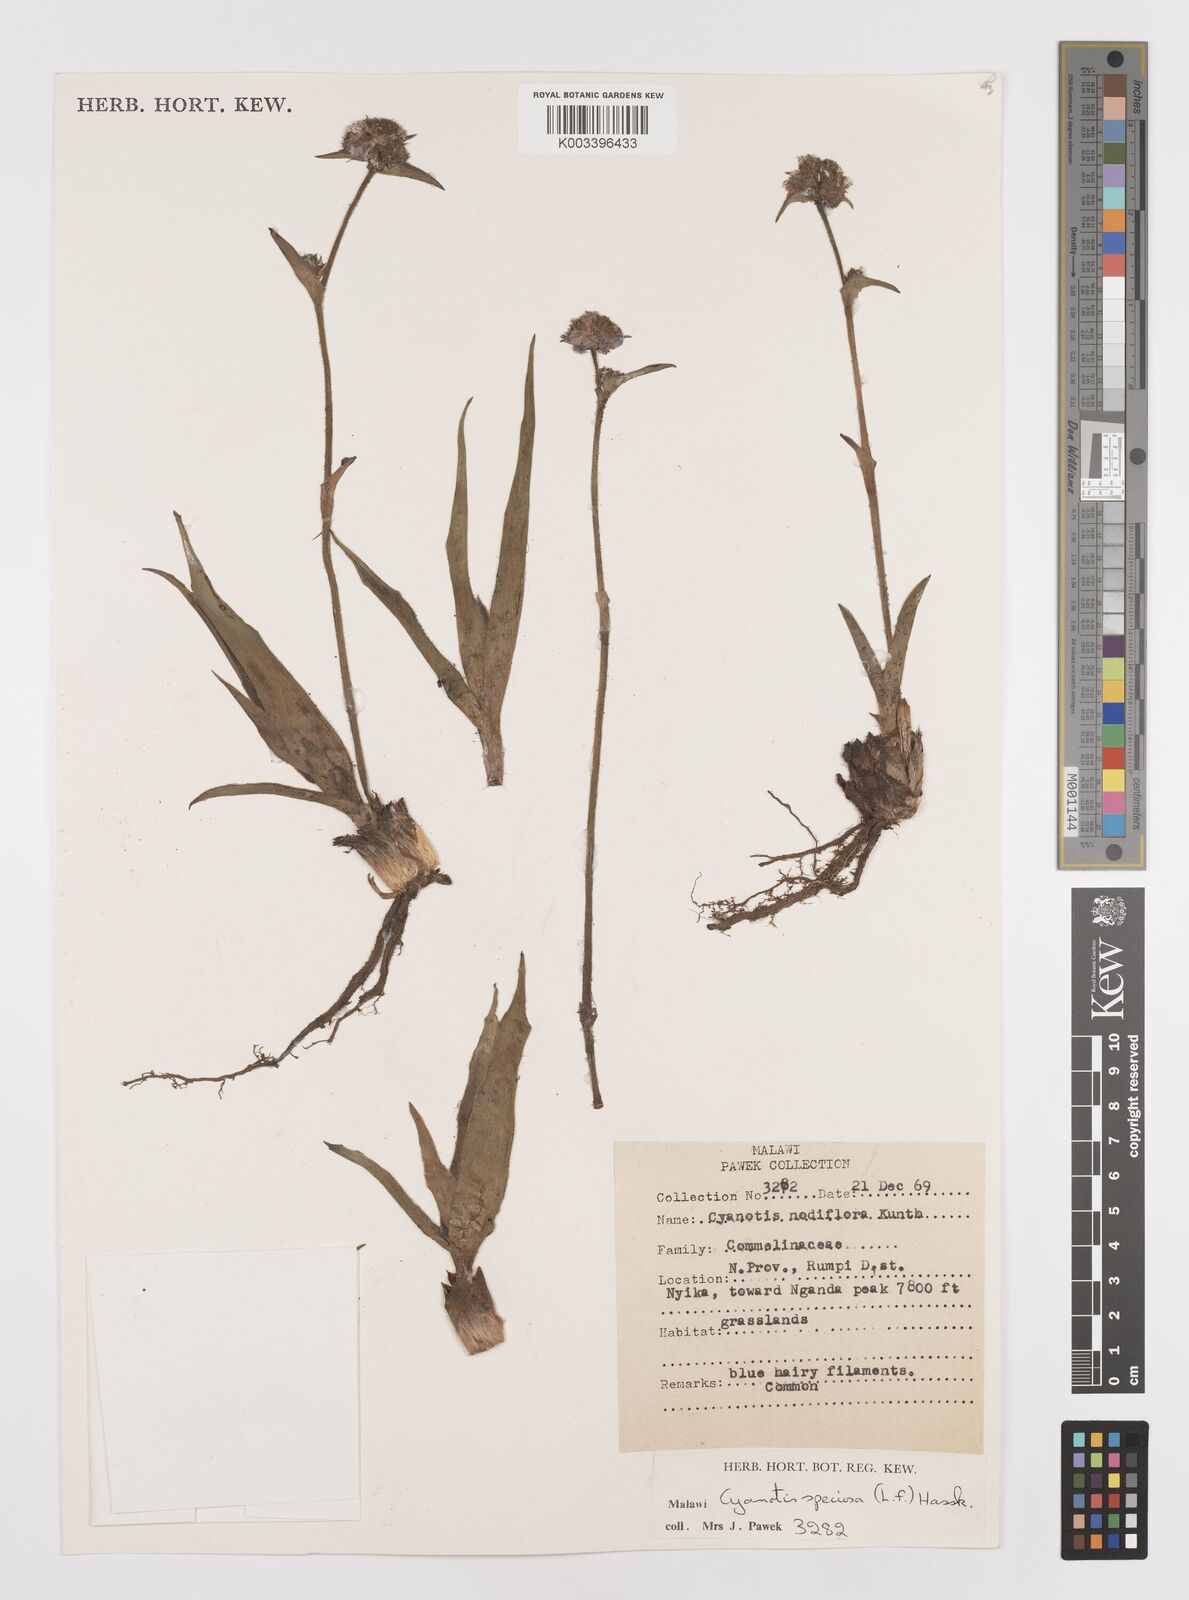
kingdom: Plantae
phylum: Tracheophyta
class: Liliopsida
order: Commelinales
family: Commelinaceae
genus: Cyanotis
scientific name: Cyanotis speciosa
